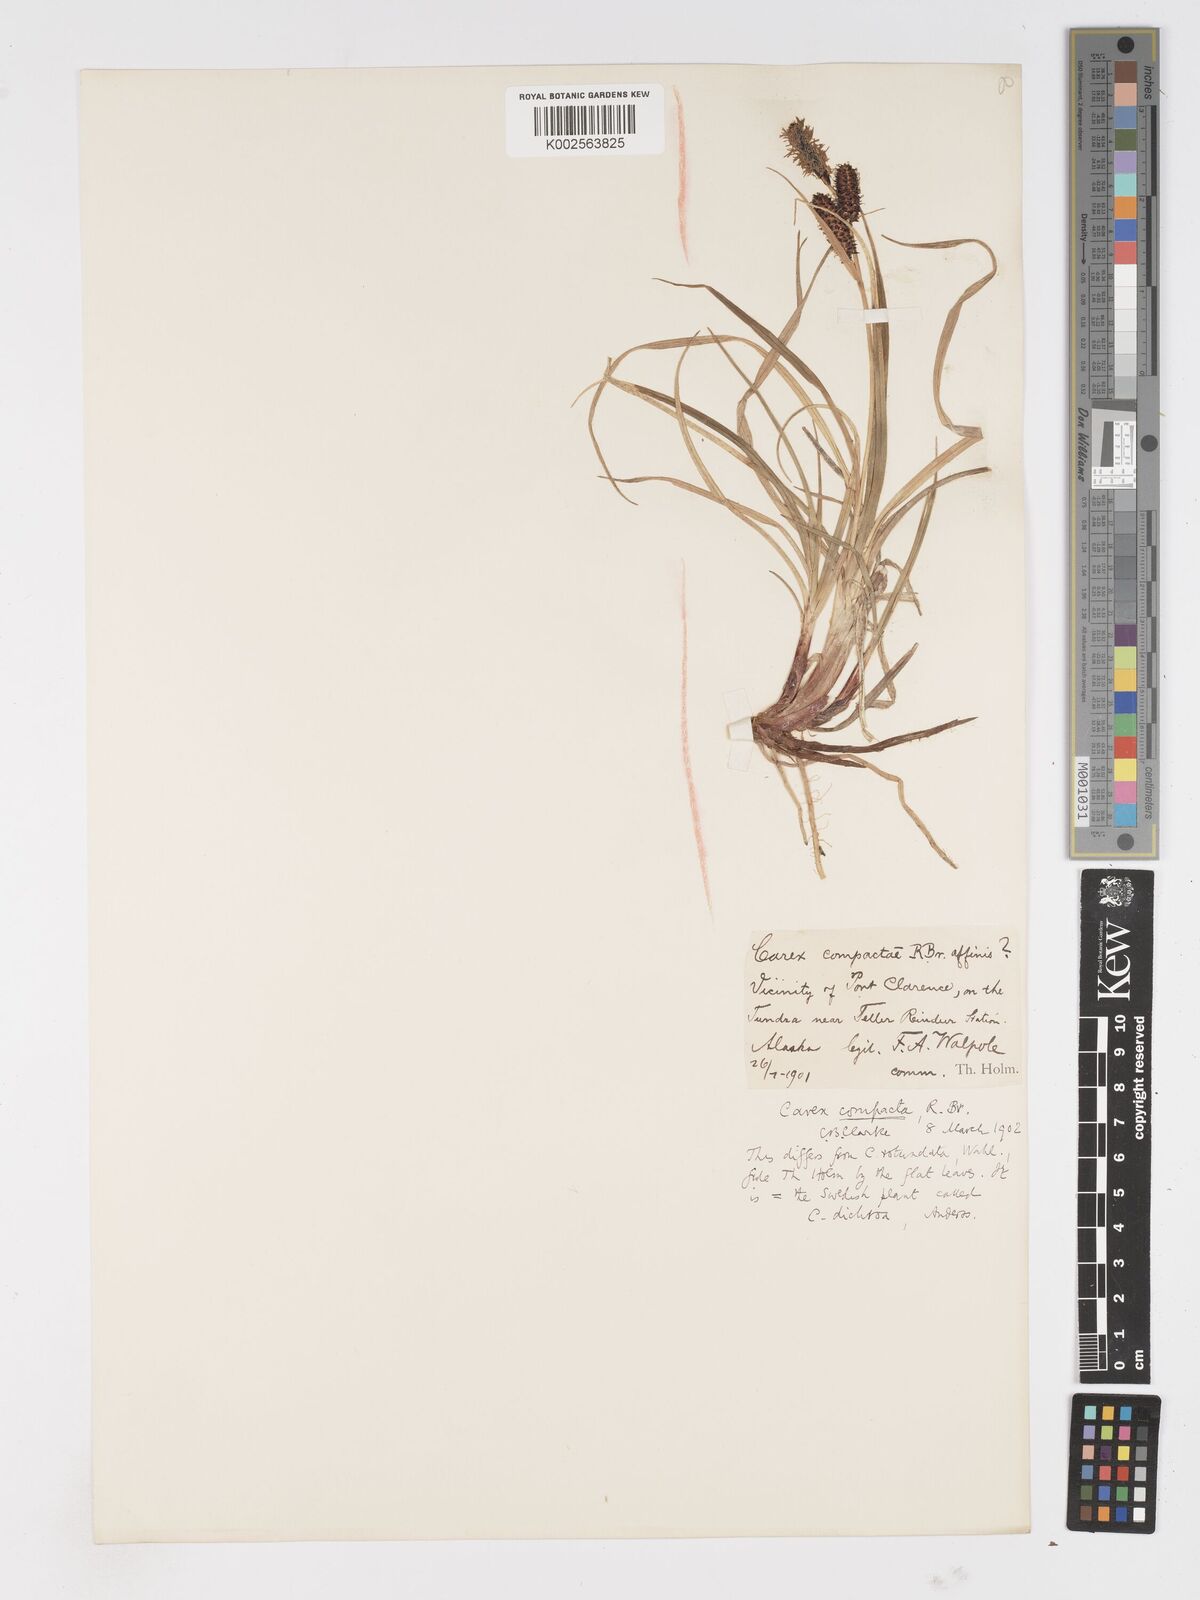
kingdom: Plantae
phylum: Tracheophyta
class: Liliopsida
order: Poales
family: Cyperaceae
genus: Carex
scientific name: Carex membranacea
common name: Fragile sedge
